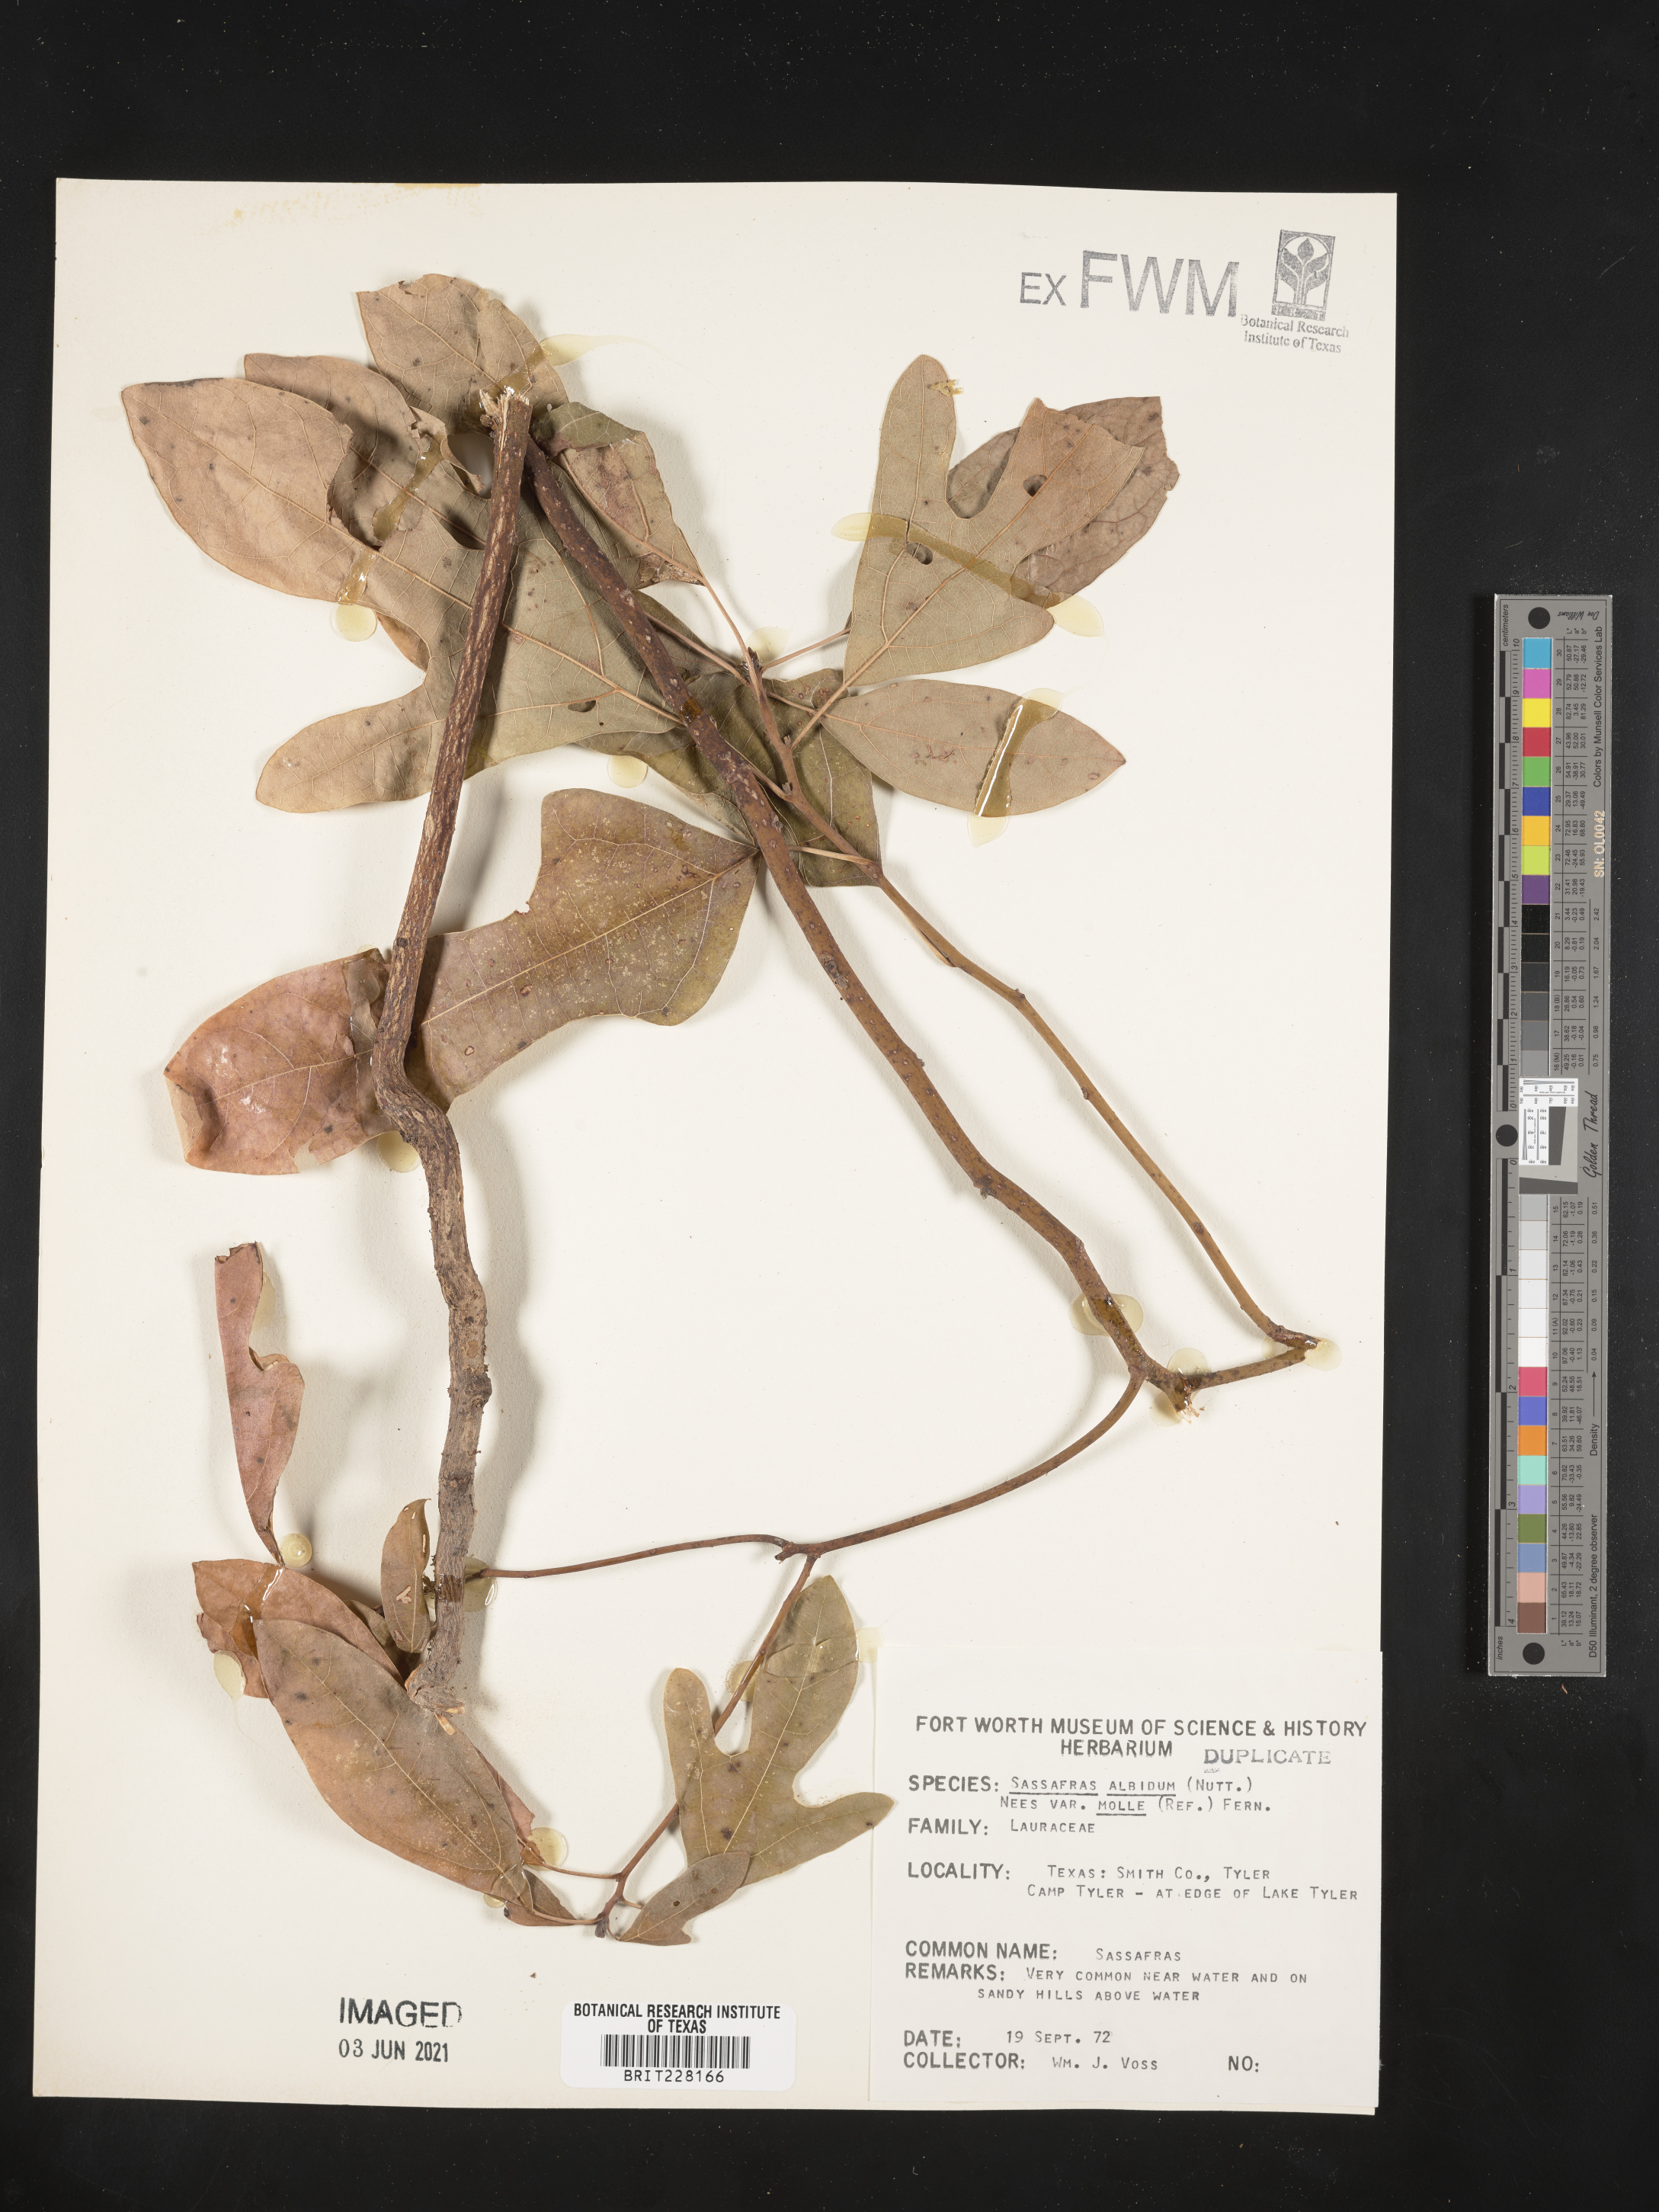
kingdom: Plantae
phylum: Tracheophyta
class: Magnoliopsida
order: Laurales
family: Lauraceae
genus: Sassafras
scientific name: Sassafras albidum
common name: Sassafras
